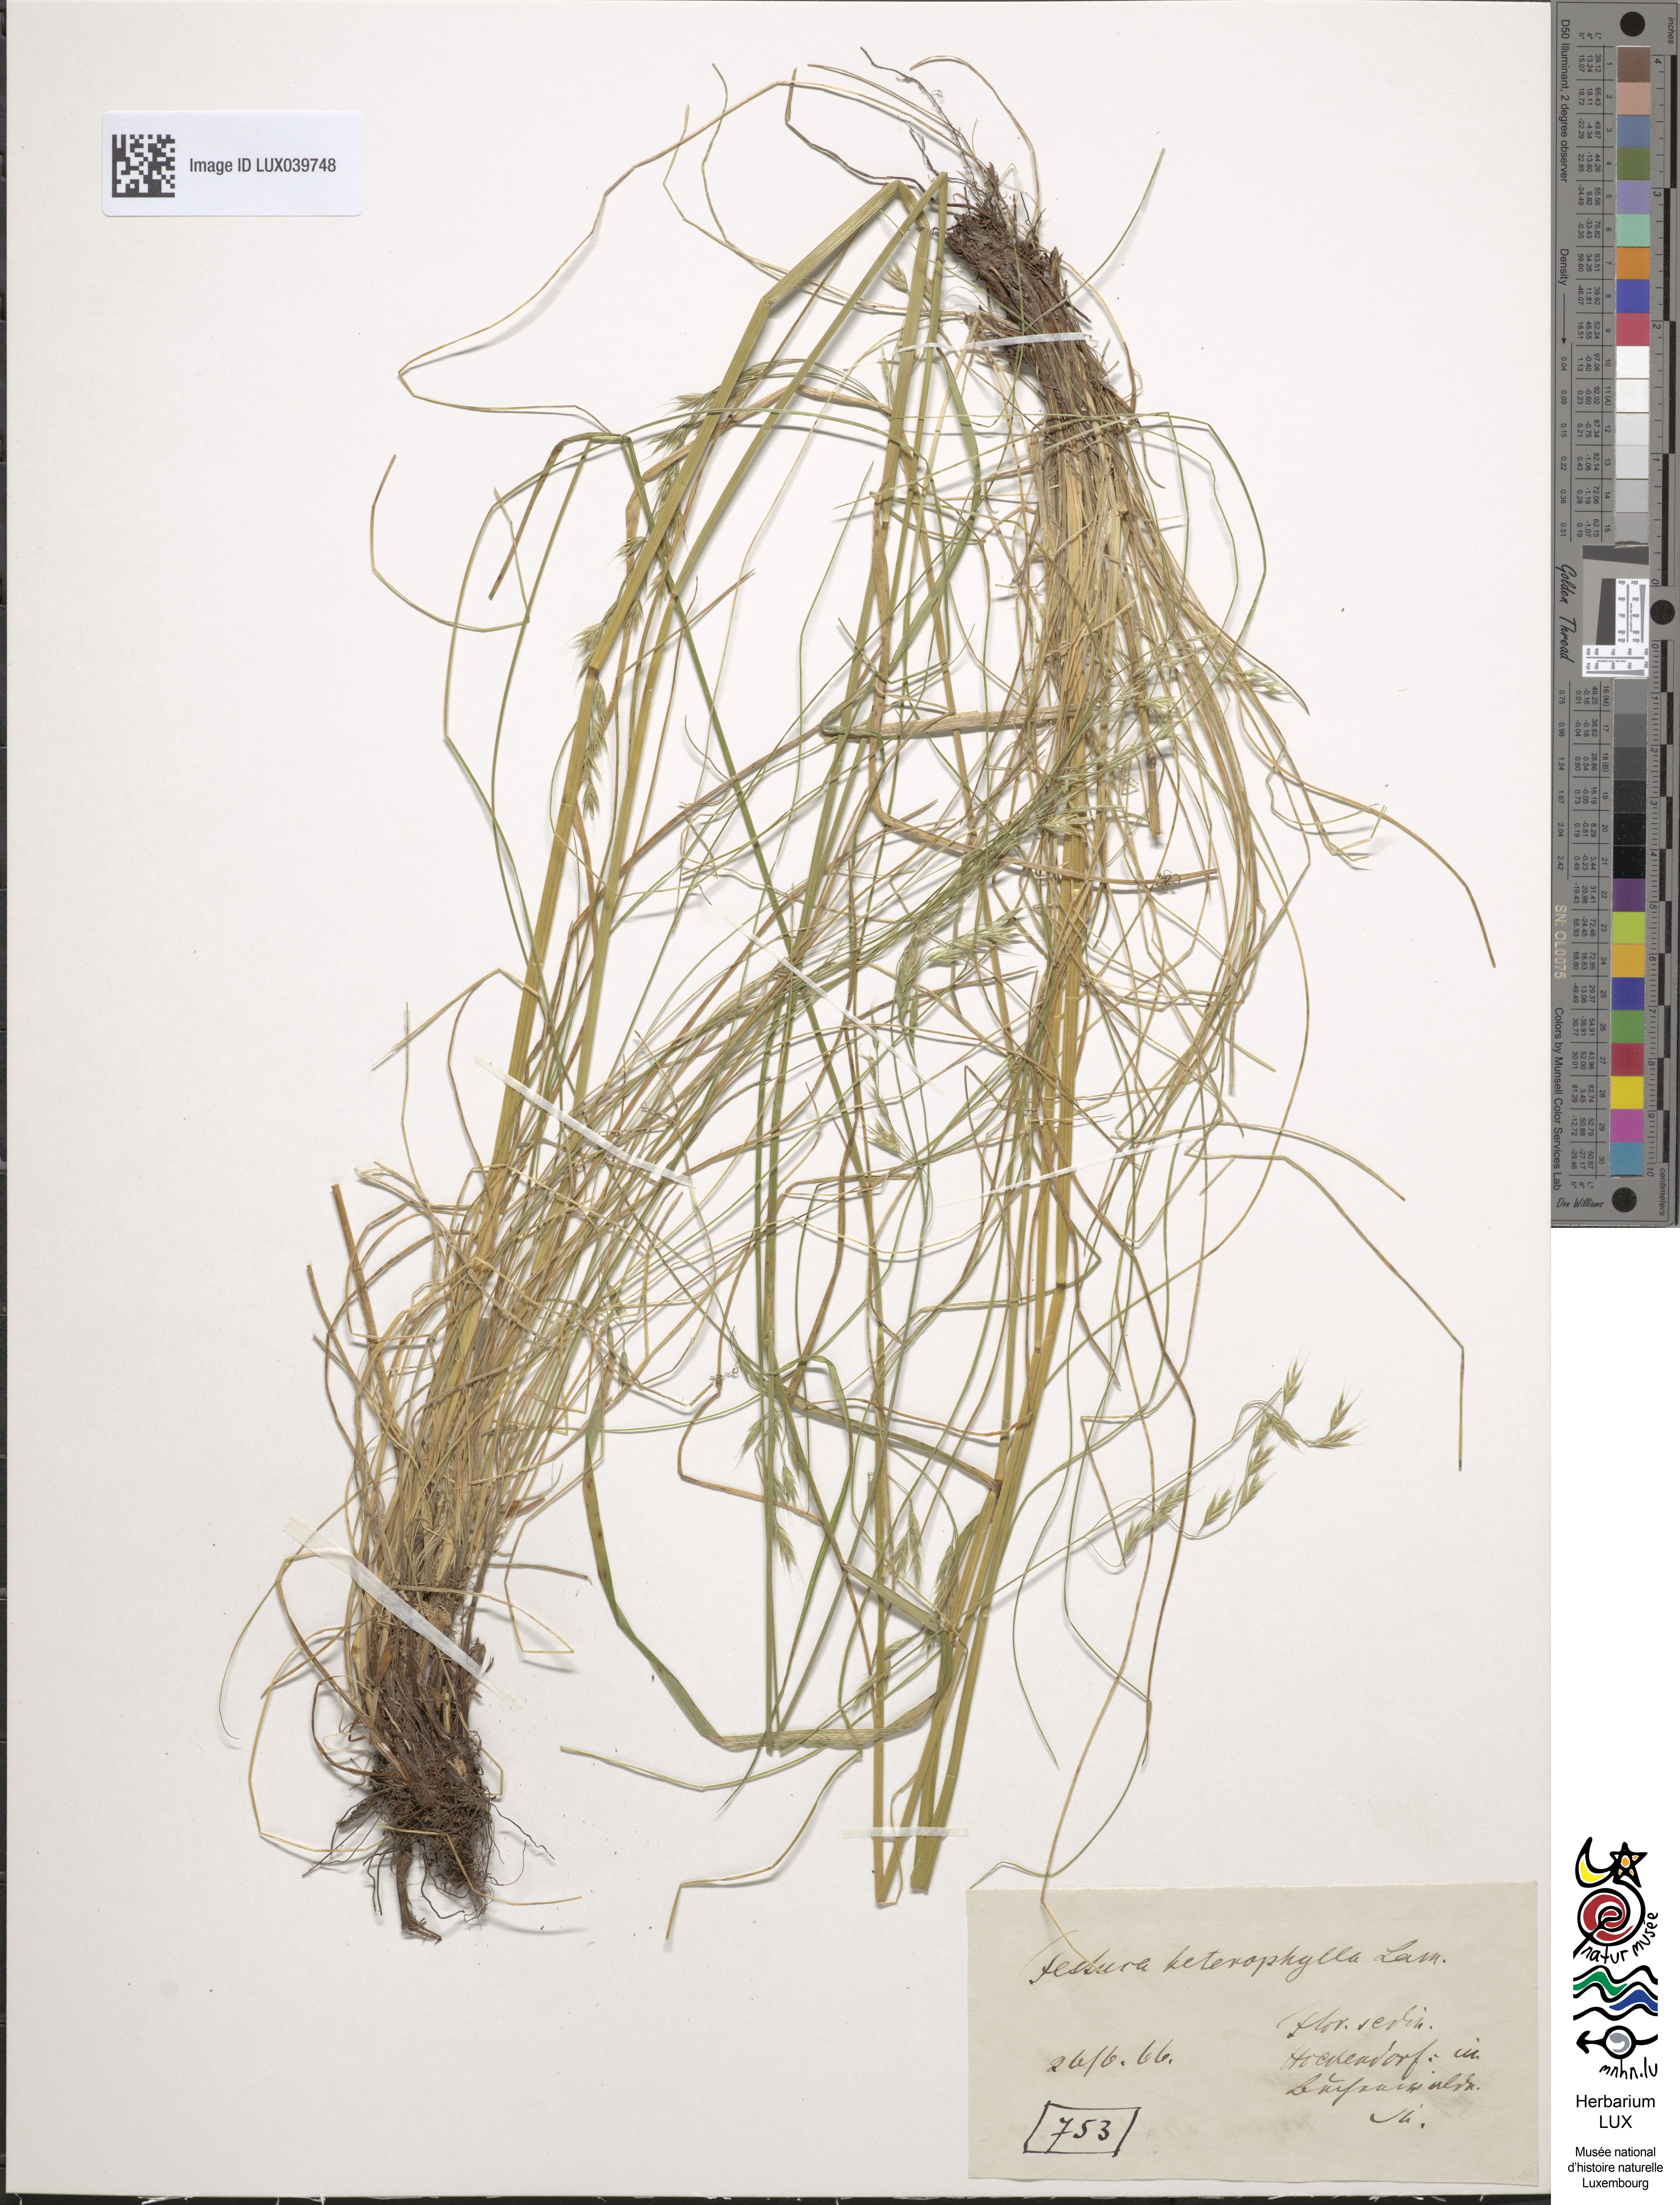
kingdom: Plantae
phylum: Tracheophyta
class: Liliopsida
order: Poales
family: Poaceae
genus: Festuca
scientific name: Festuca heterophylla
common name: Various-leaved fescue
